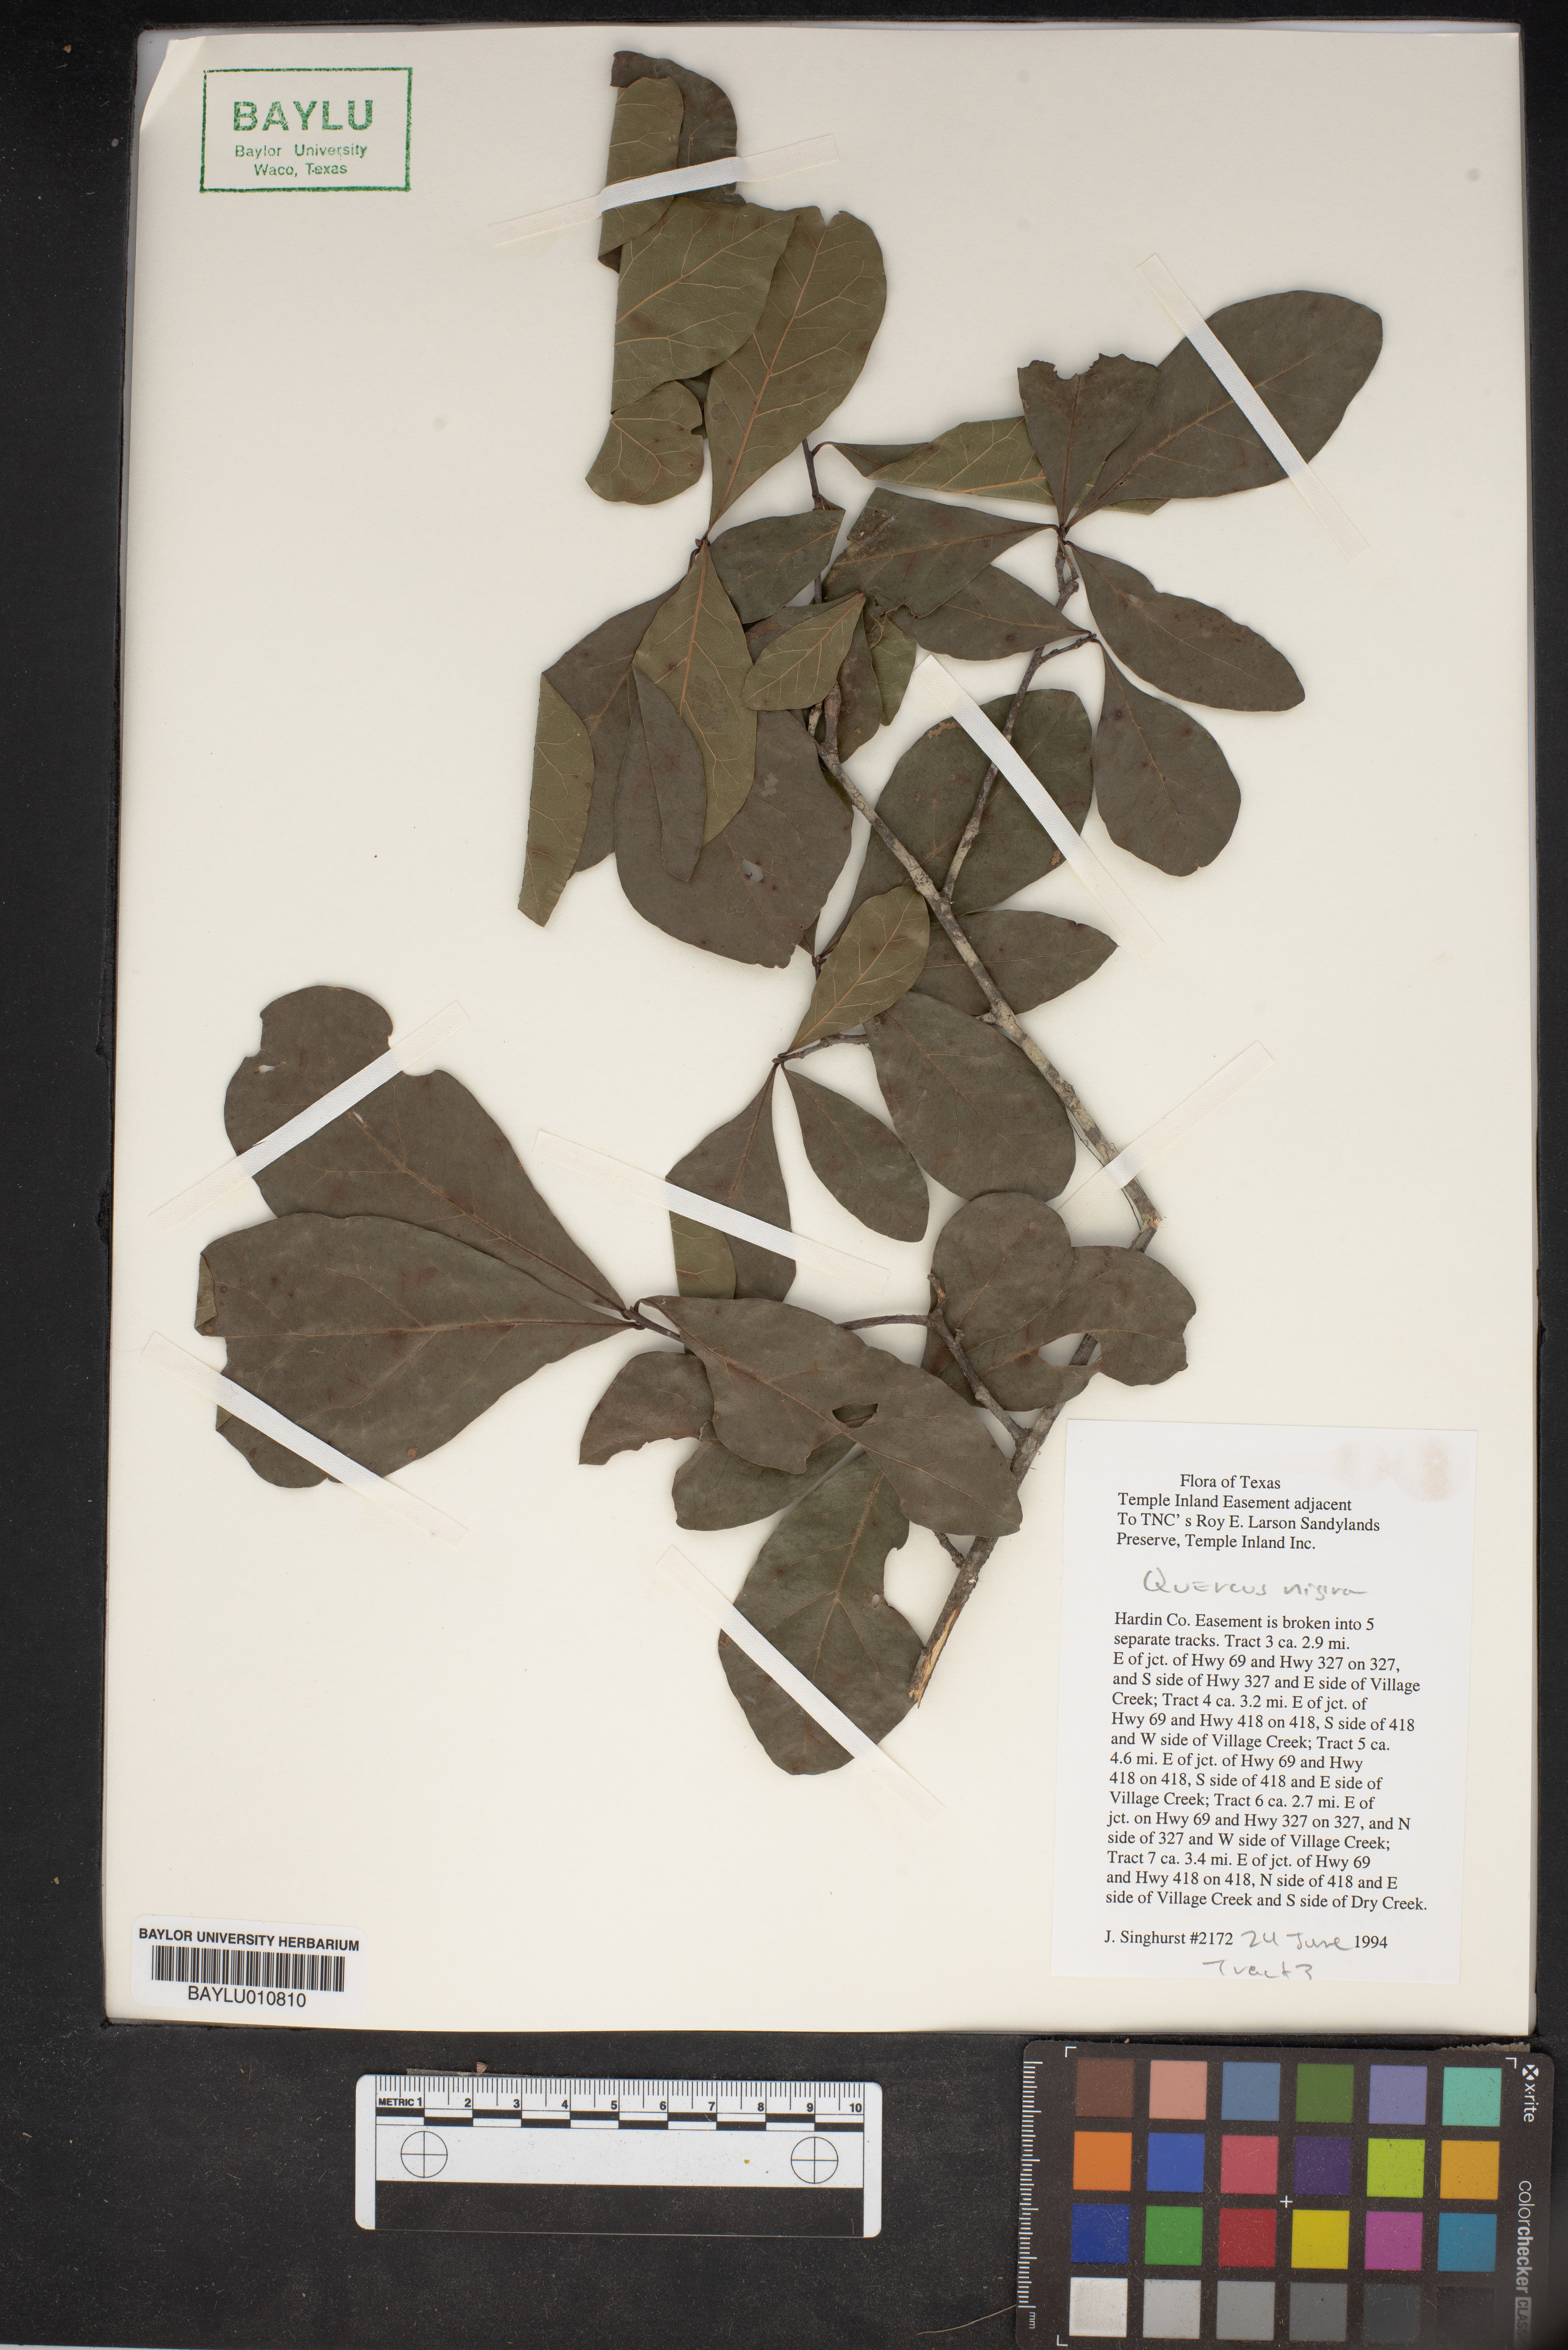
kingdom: Plantae
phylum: Tracheophyta
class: Magnoliopsida
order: Fagales
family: Fagaceae
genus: Quercus
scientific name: Quercus nigra
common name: Water oak
